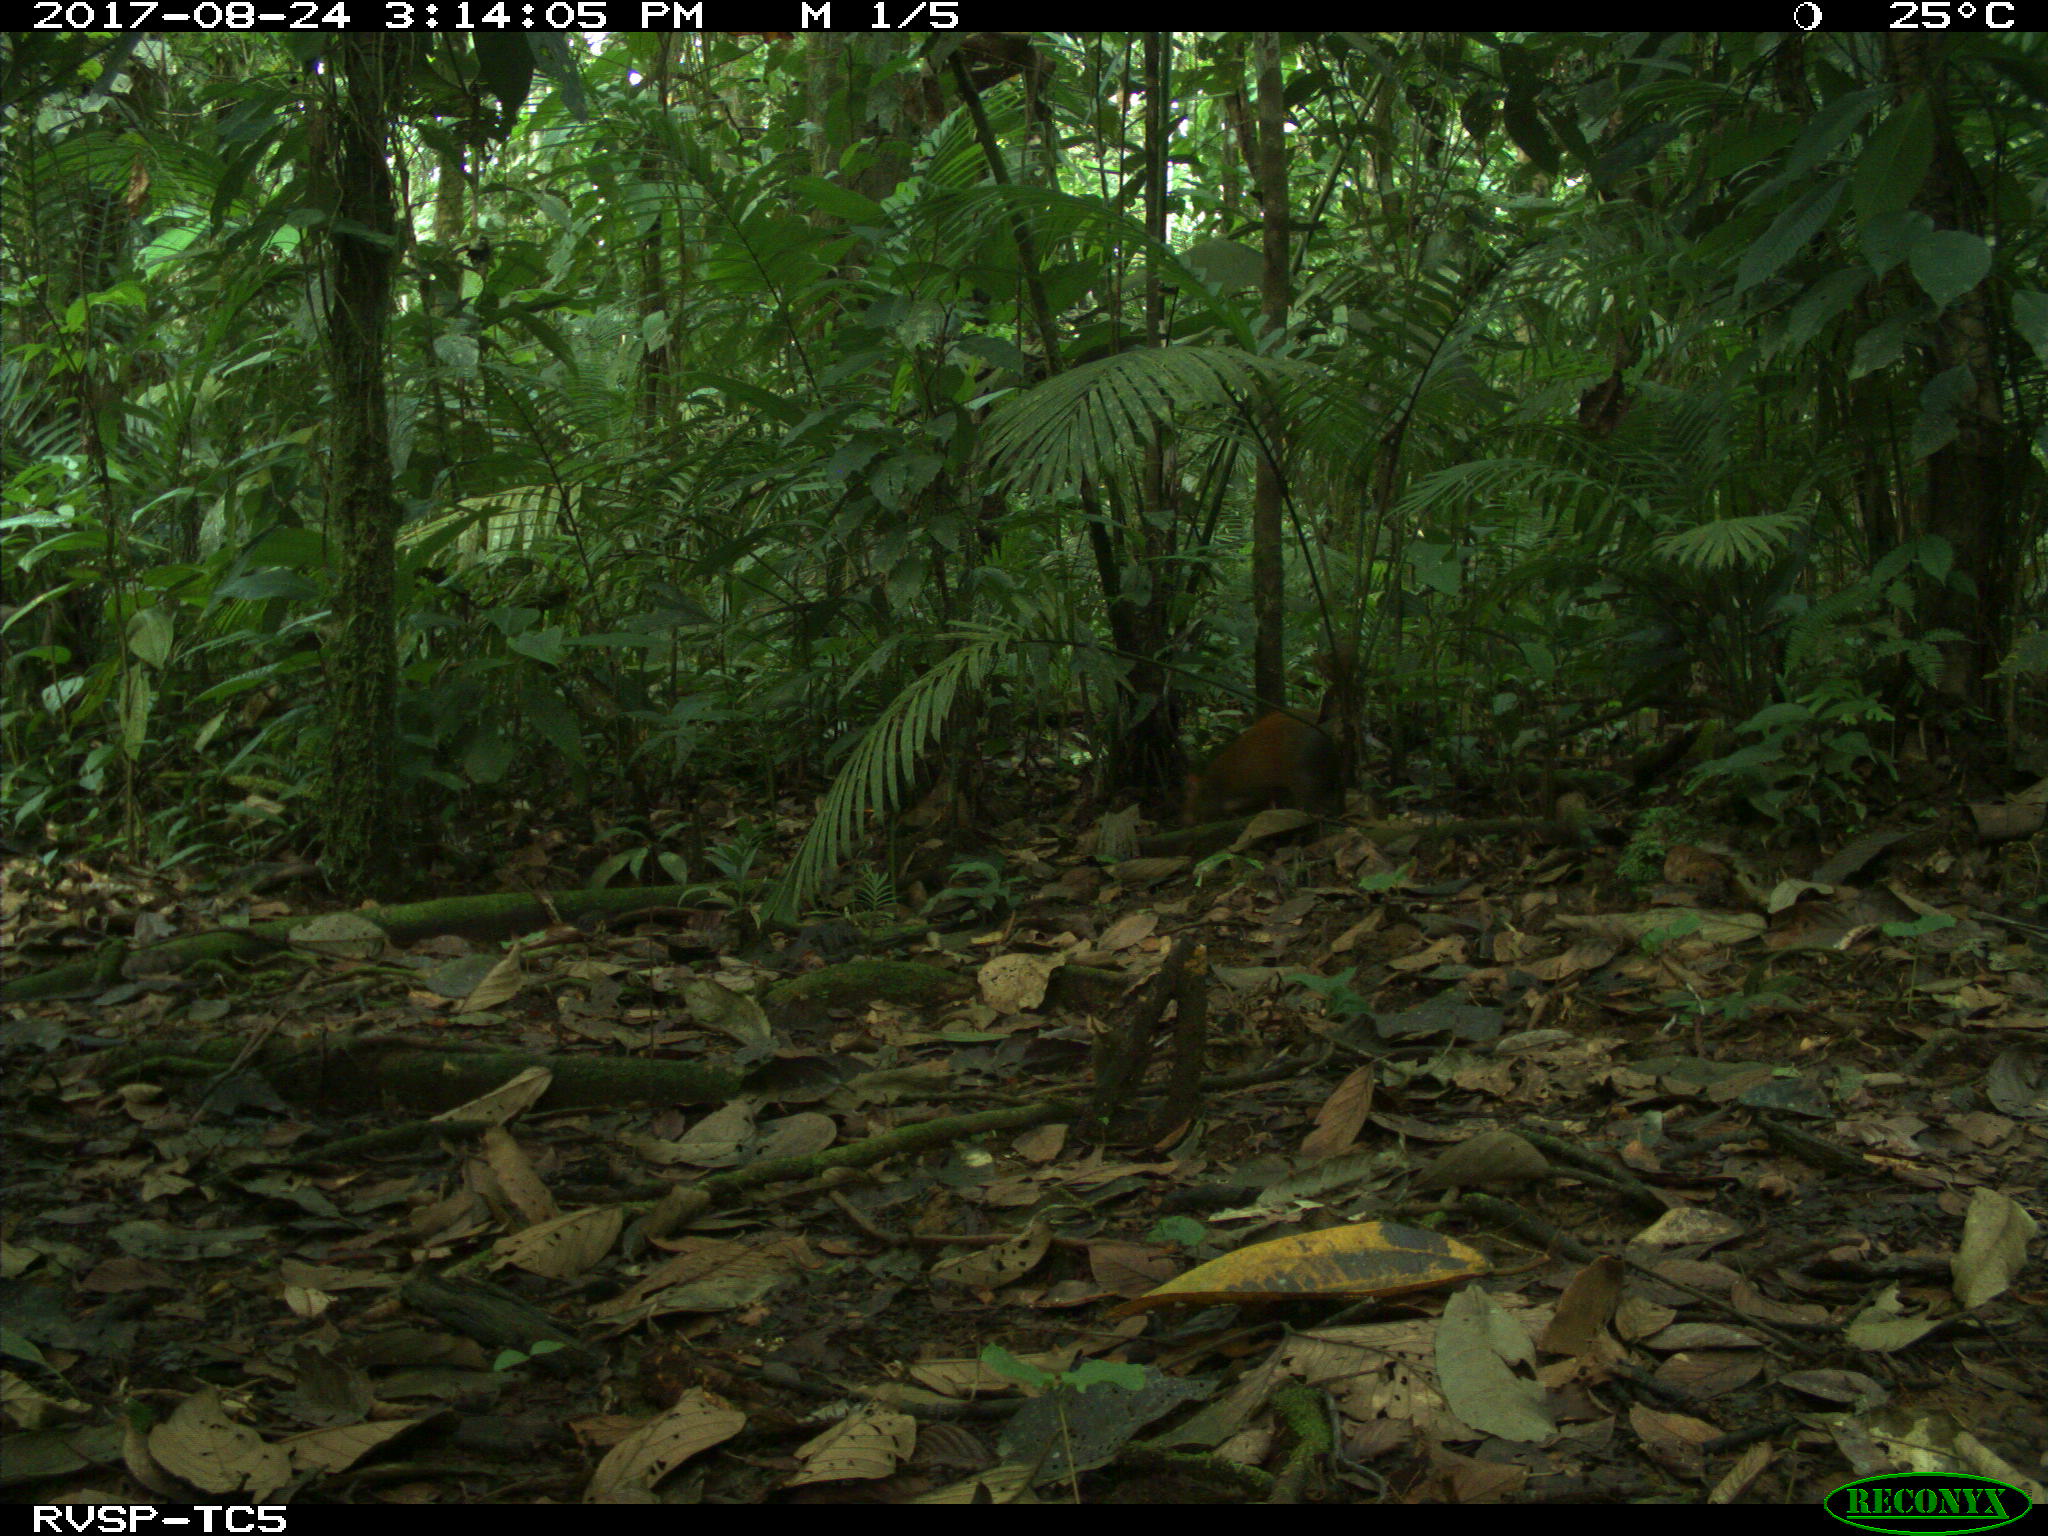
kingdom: Animalia
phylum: Chordata
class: Mammalia
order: Rodentia
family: Dasyproctidae
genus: Dasyprocta
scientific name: Dasyprocta punctata
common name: Central american agouti
